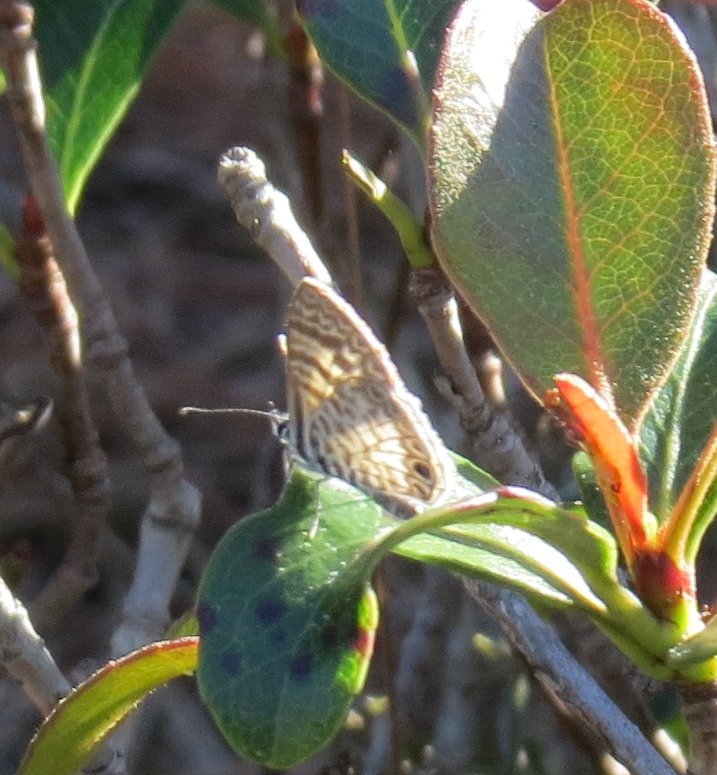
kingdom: Animalia
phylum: Arthropoda
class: Insecta
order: Lepidoptera
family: Lycaenidae
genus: Leptotes
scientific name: Leptotes cassius
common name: Cassius Blue
